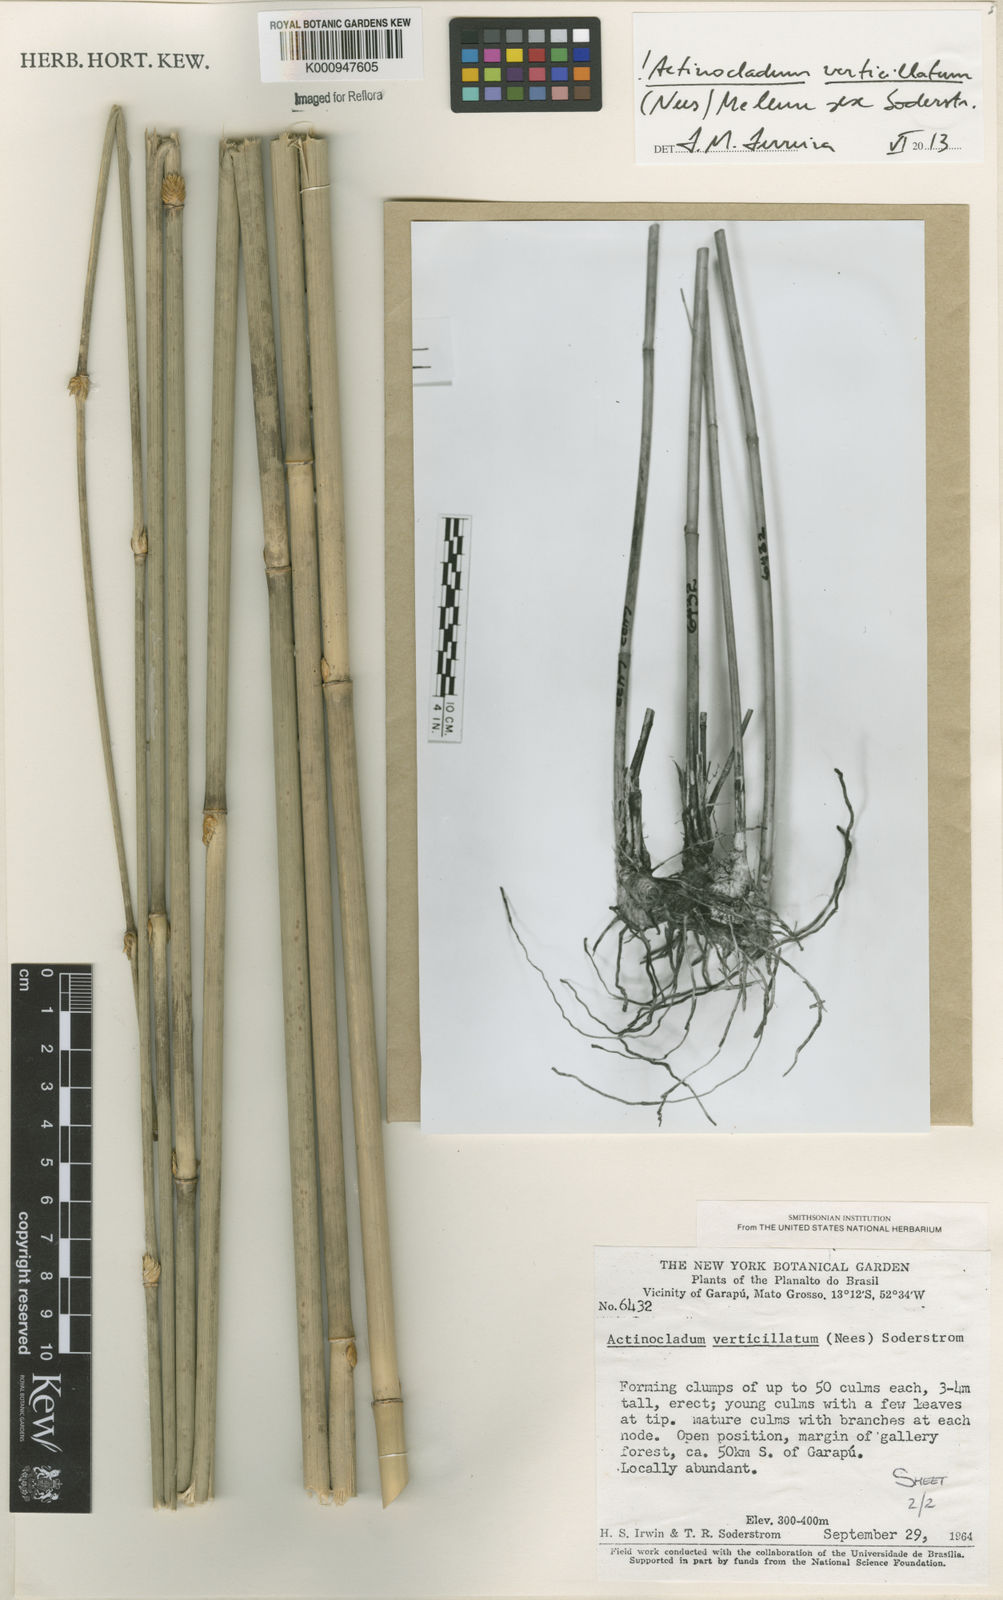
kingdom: Plantae
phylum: Tracheophyta
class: Liliopsida
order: Poales
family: Poaceae
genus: Actinocladum
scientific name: Actinocladum verticillatum
